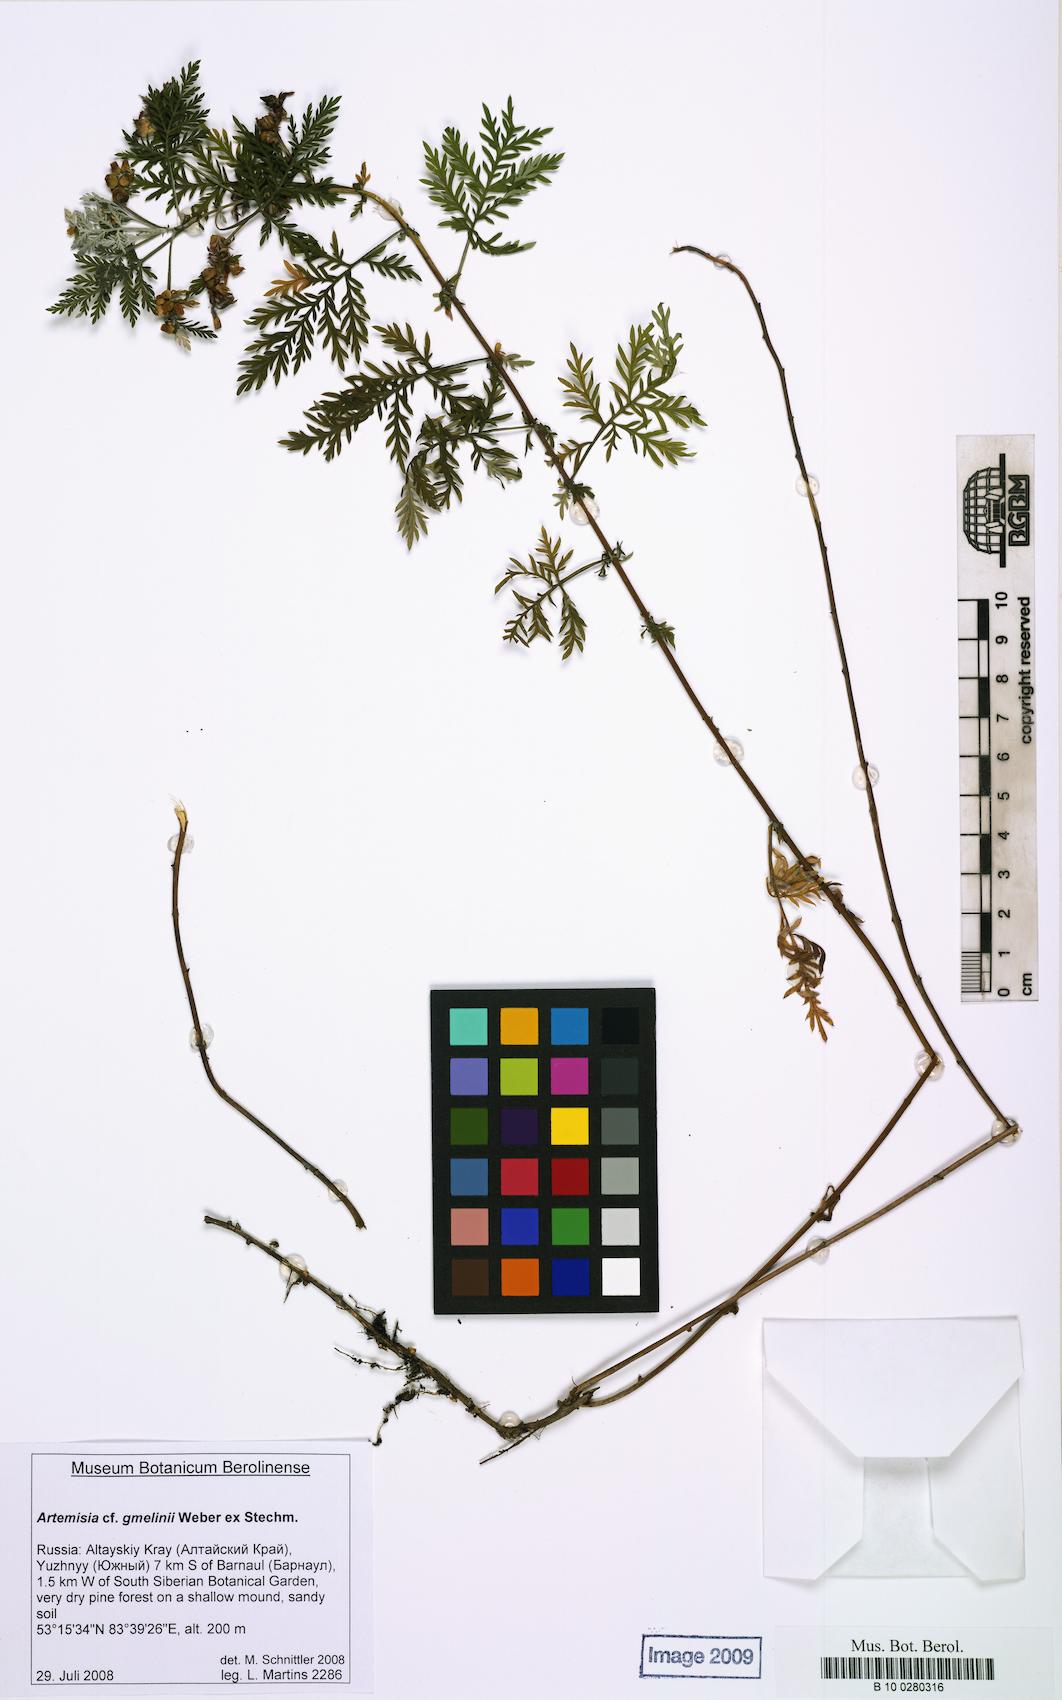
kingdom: Plantae
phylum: Tracheophyta
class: Magnoliopsida
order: Asterales
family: Asteraceae
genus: Artemisia
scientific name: Artemisia gmelinii
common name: Gmelin's wormwood
